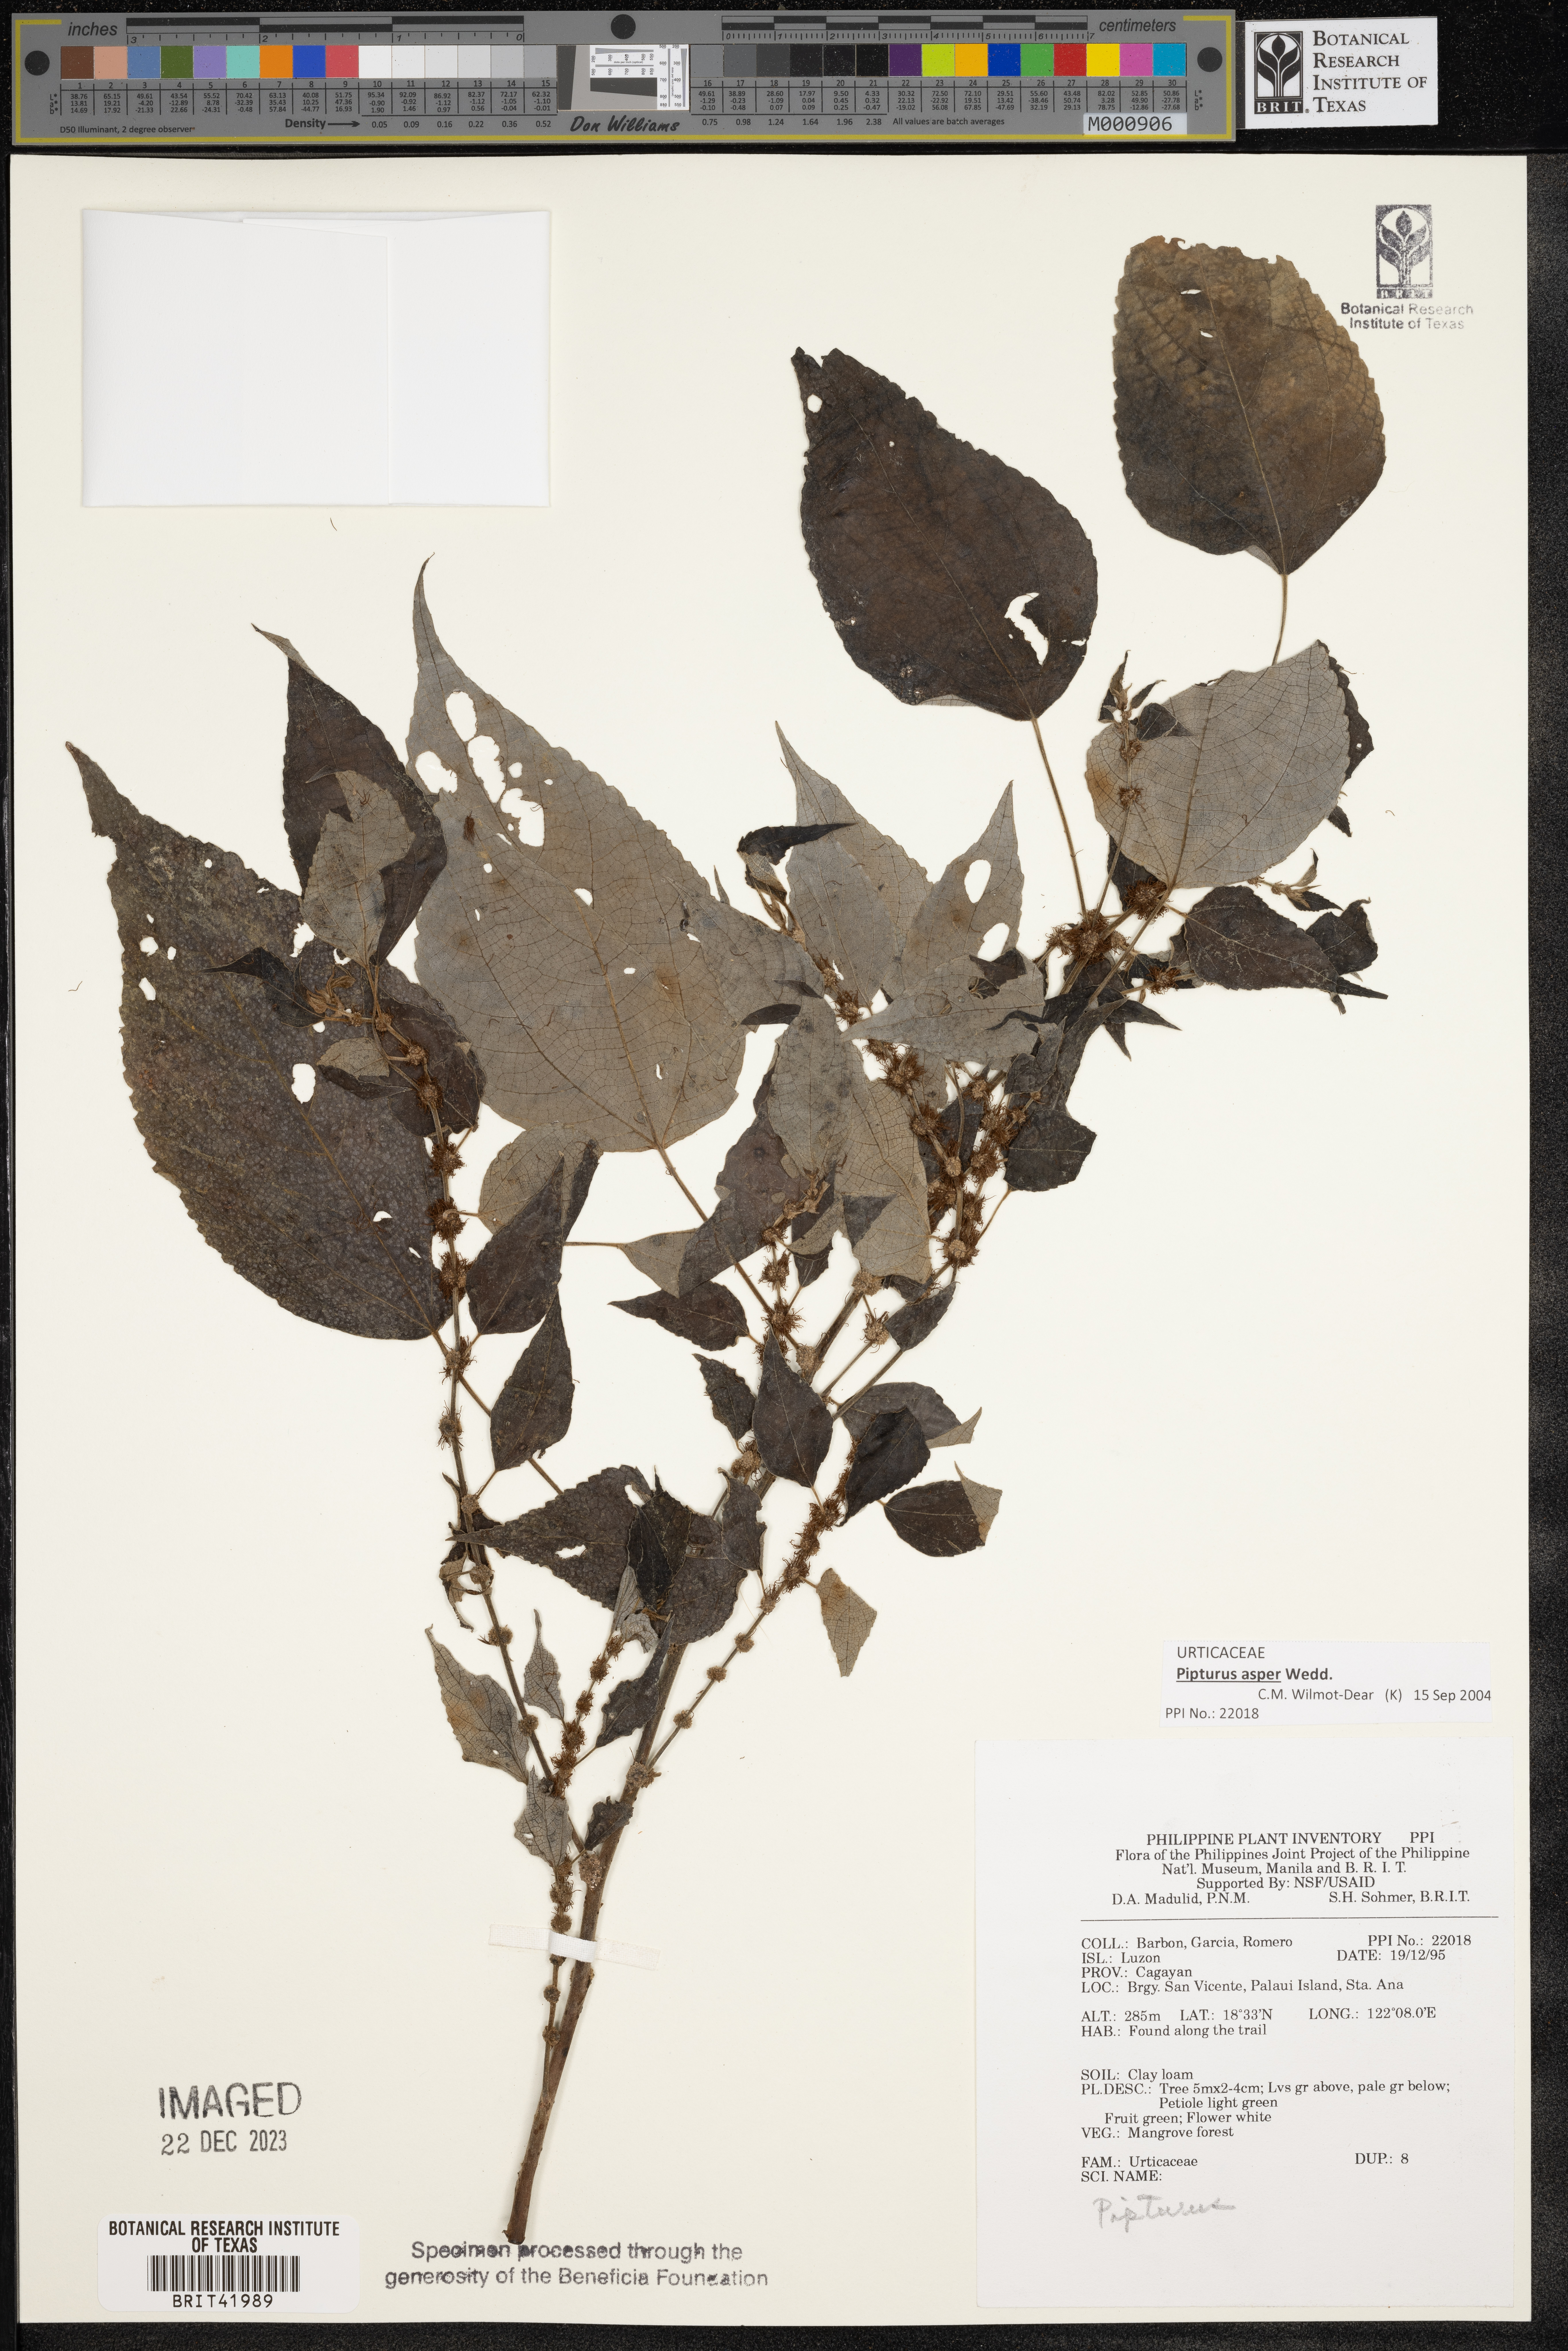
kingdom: Plantae
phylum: Tracheophyta
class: Magnoliopsida
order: Rosales
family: Urticaceae
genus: Pipturus
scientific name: Pipturus
